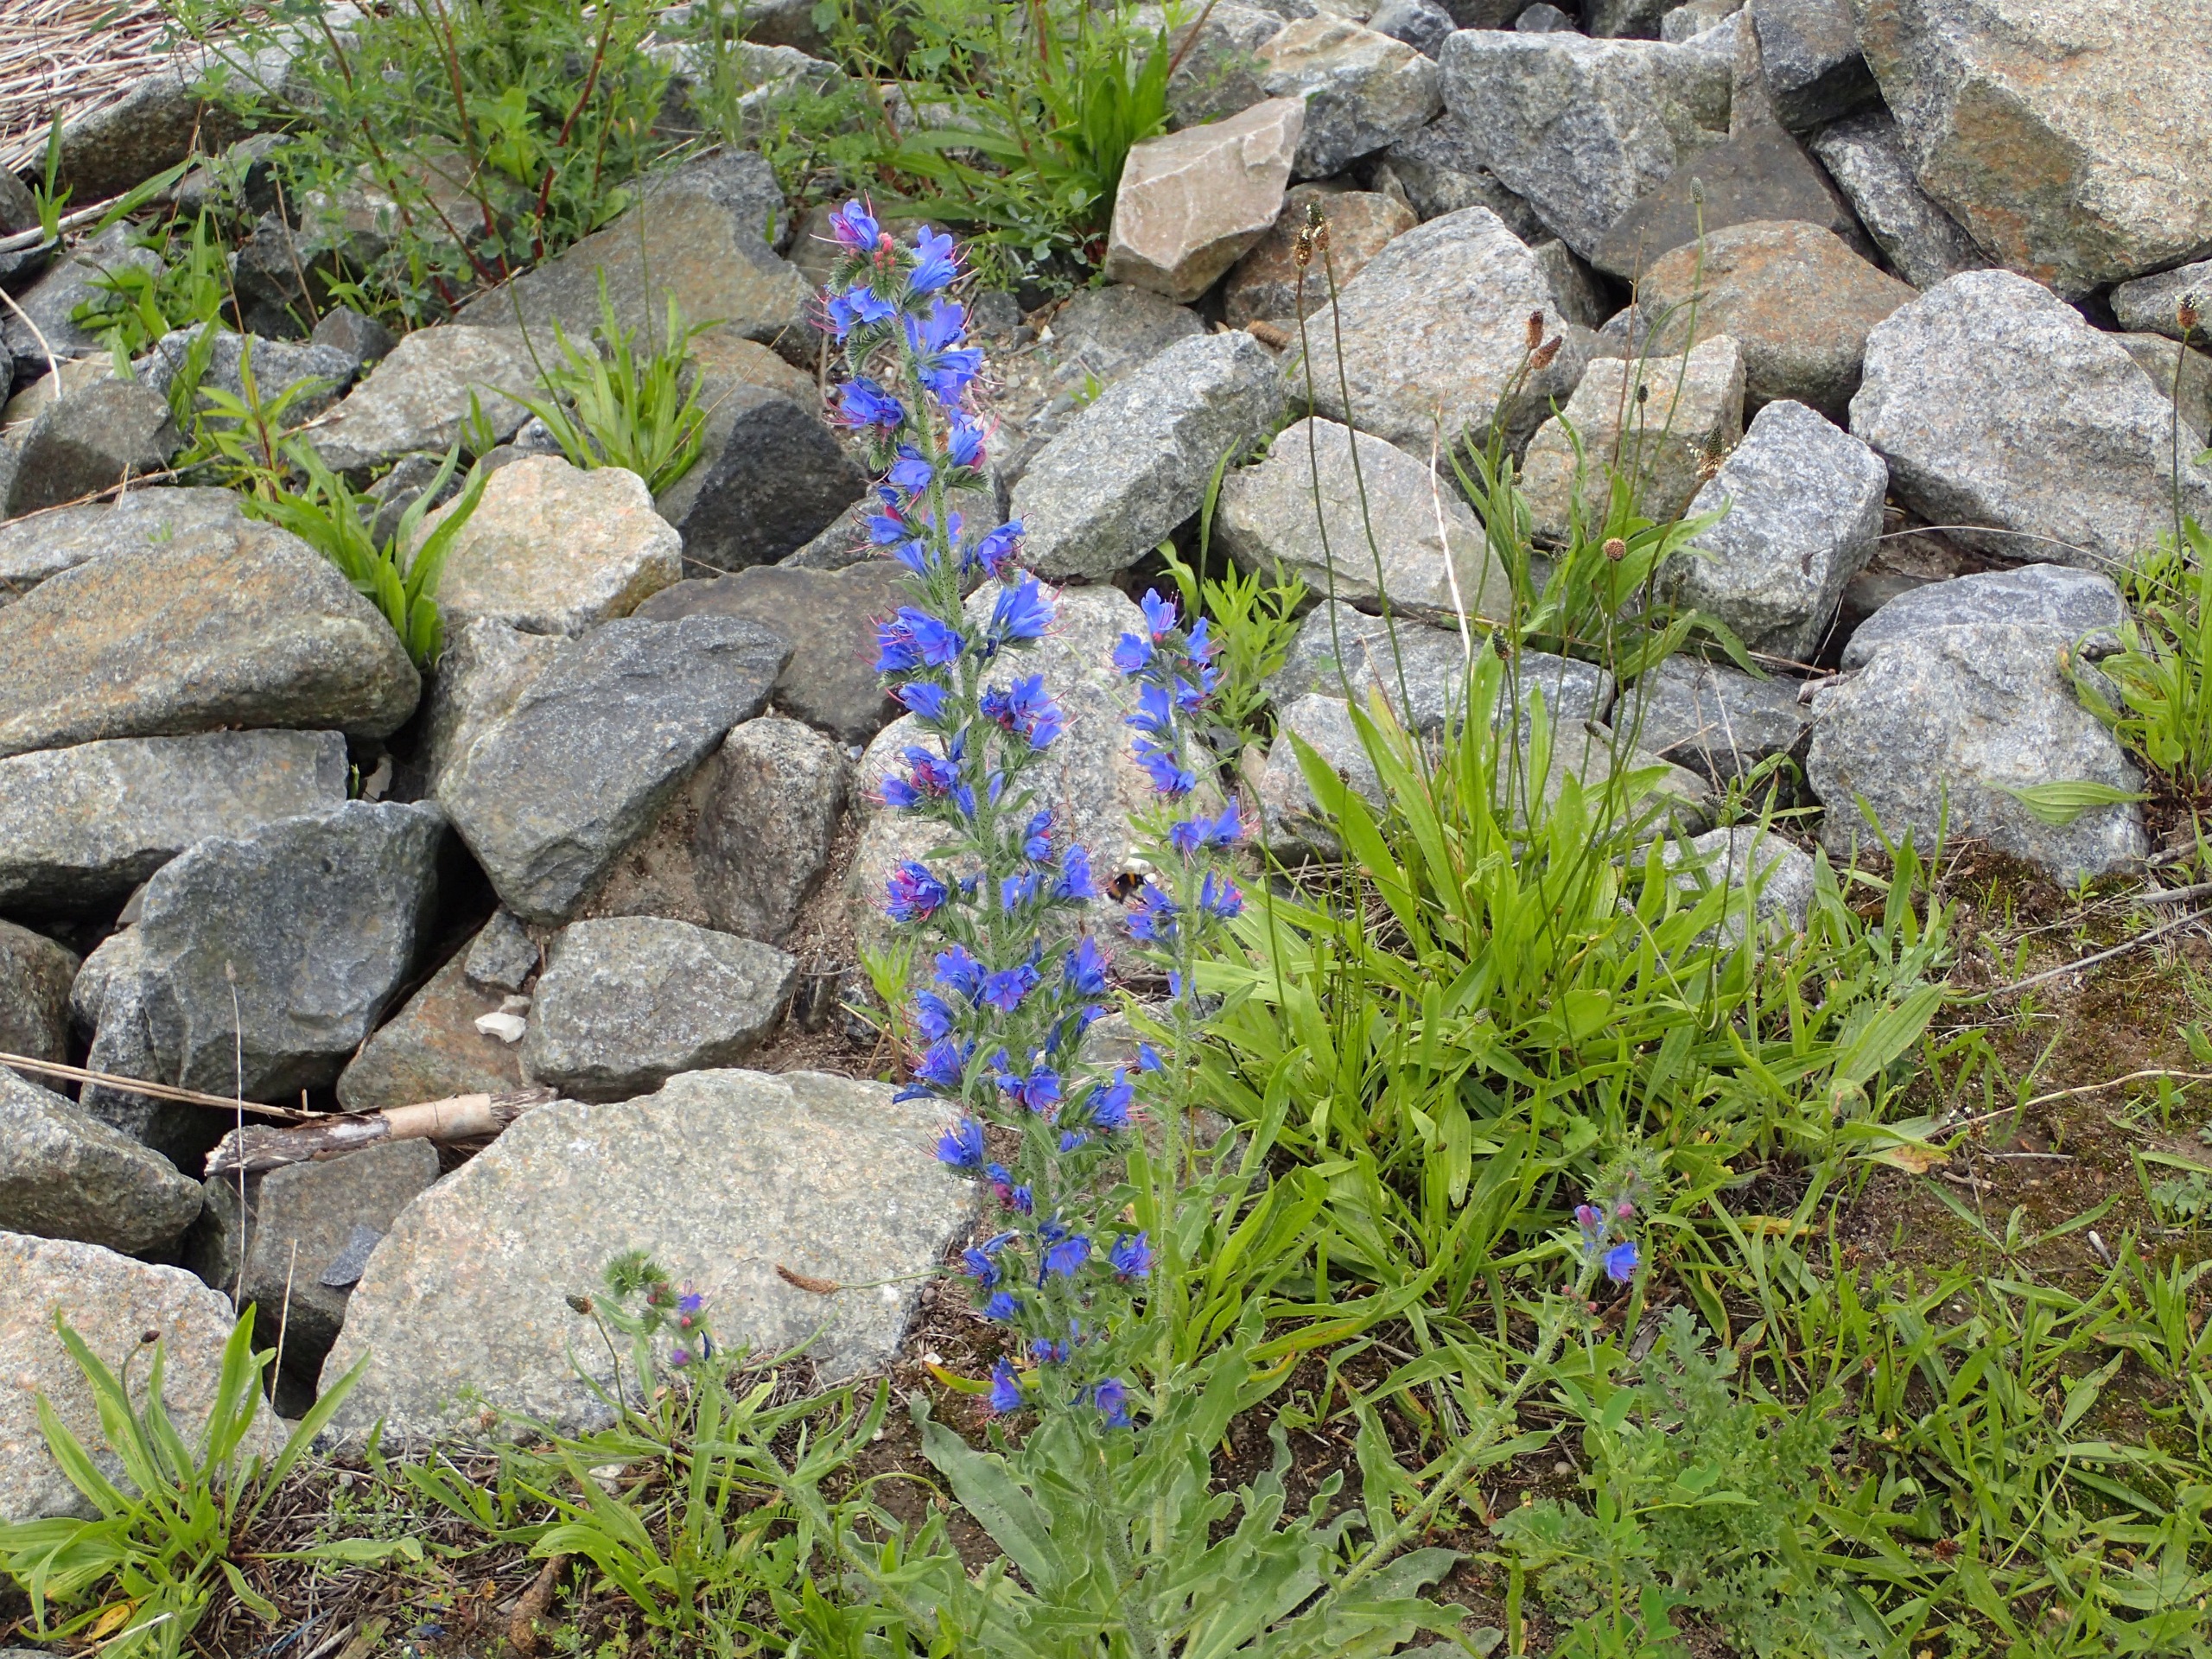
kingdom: Plantae
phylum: Tracheophyta
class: Magnoliopsida
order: Boraginales
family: Boraginaceae
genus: Echium
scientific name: Echium vulgare
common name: Slangehoved
